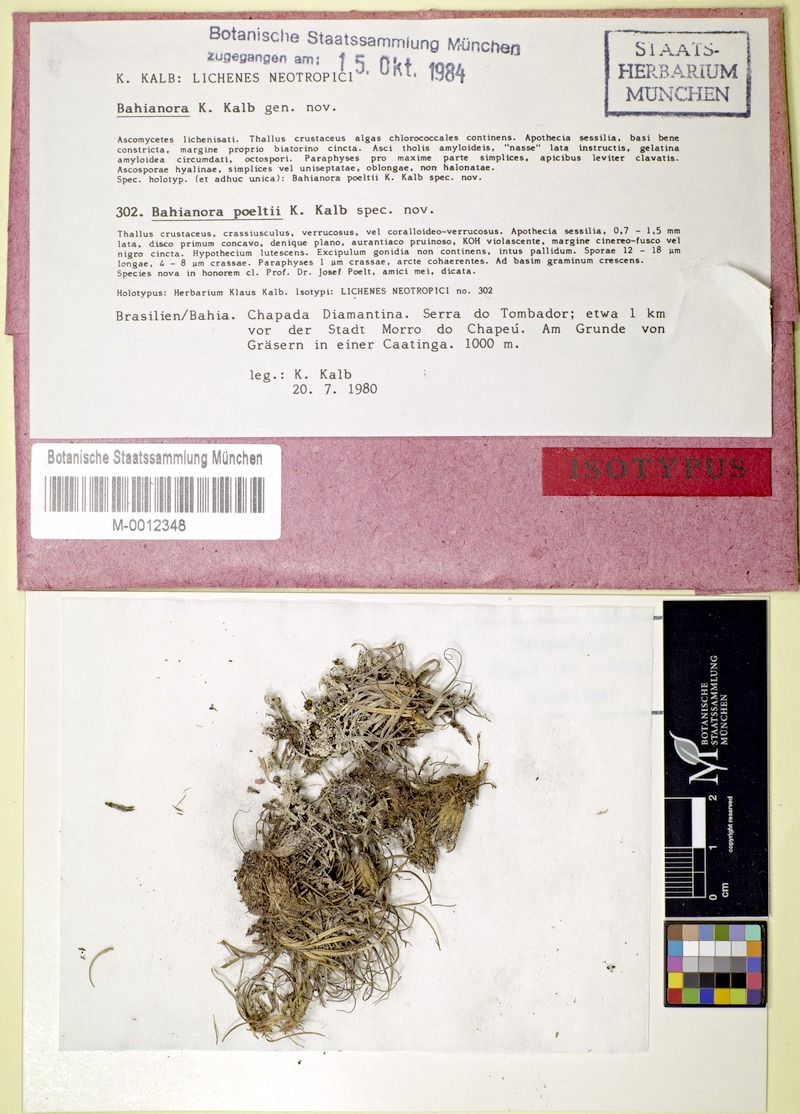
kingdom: Fungi
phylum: Ascomycota
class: Lecanoromycetes
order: Lecideales
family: Lecideaceae
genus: Bahianora
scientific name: Bahianora poeltii
